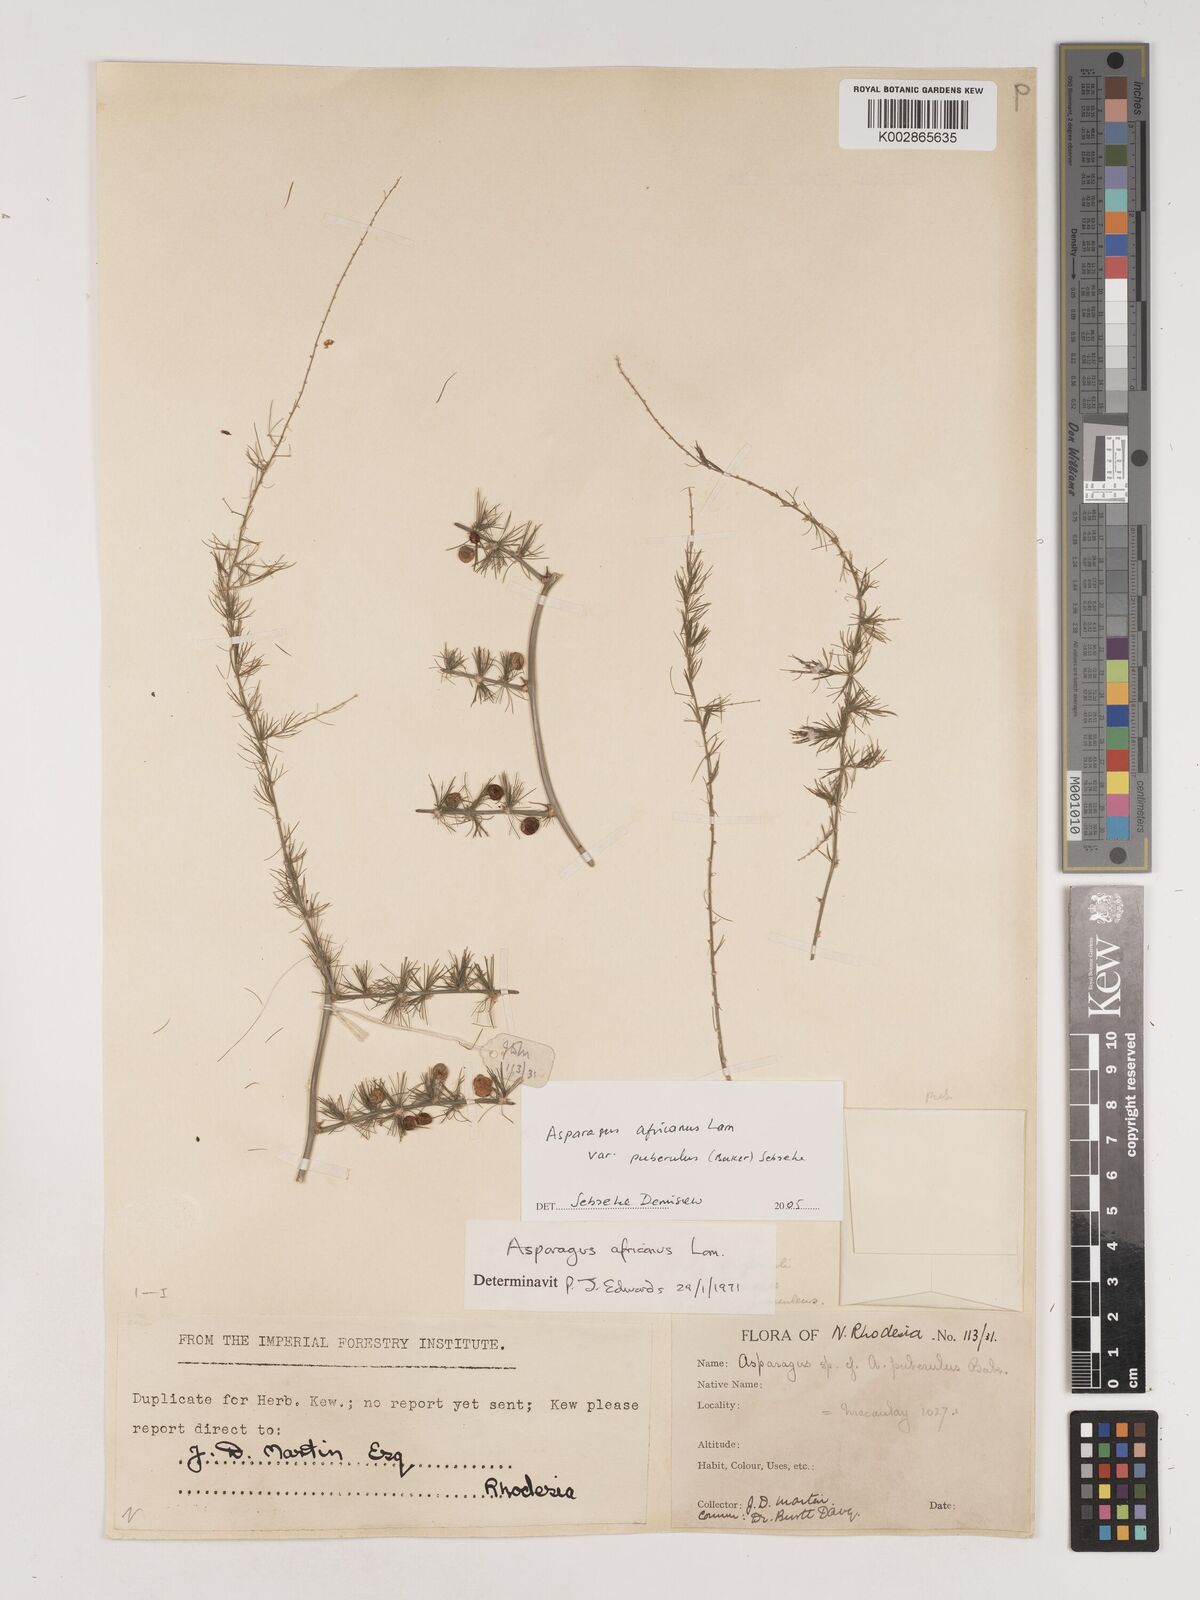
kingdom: Plantae
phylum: Tracheophyta
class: Liliopsida
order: Asparagales
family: Asparagaceae
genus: Asparagus
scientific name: Asparagus africanus
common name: Asparagus-fern
